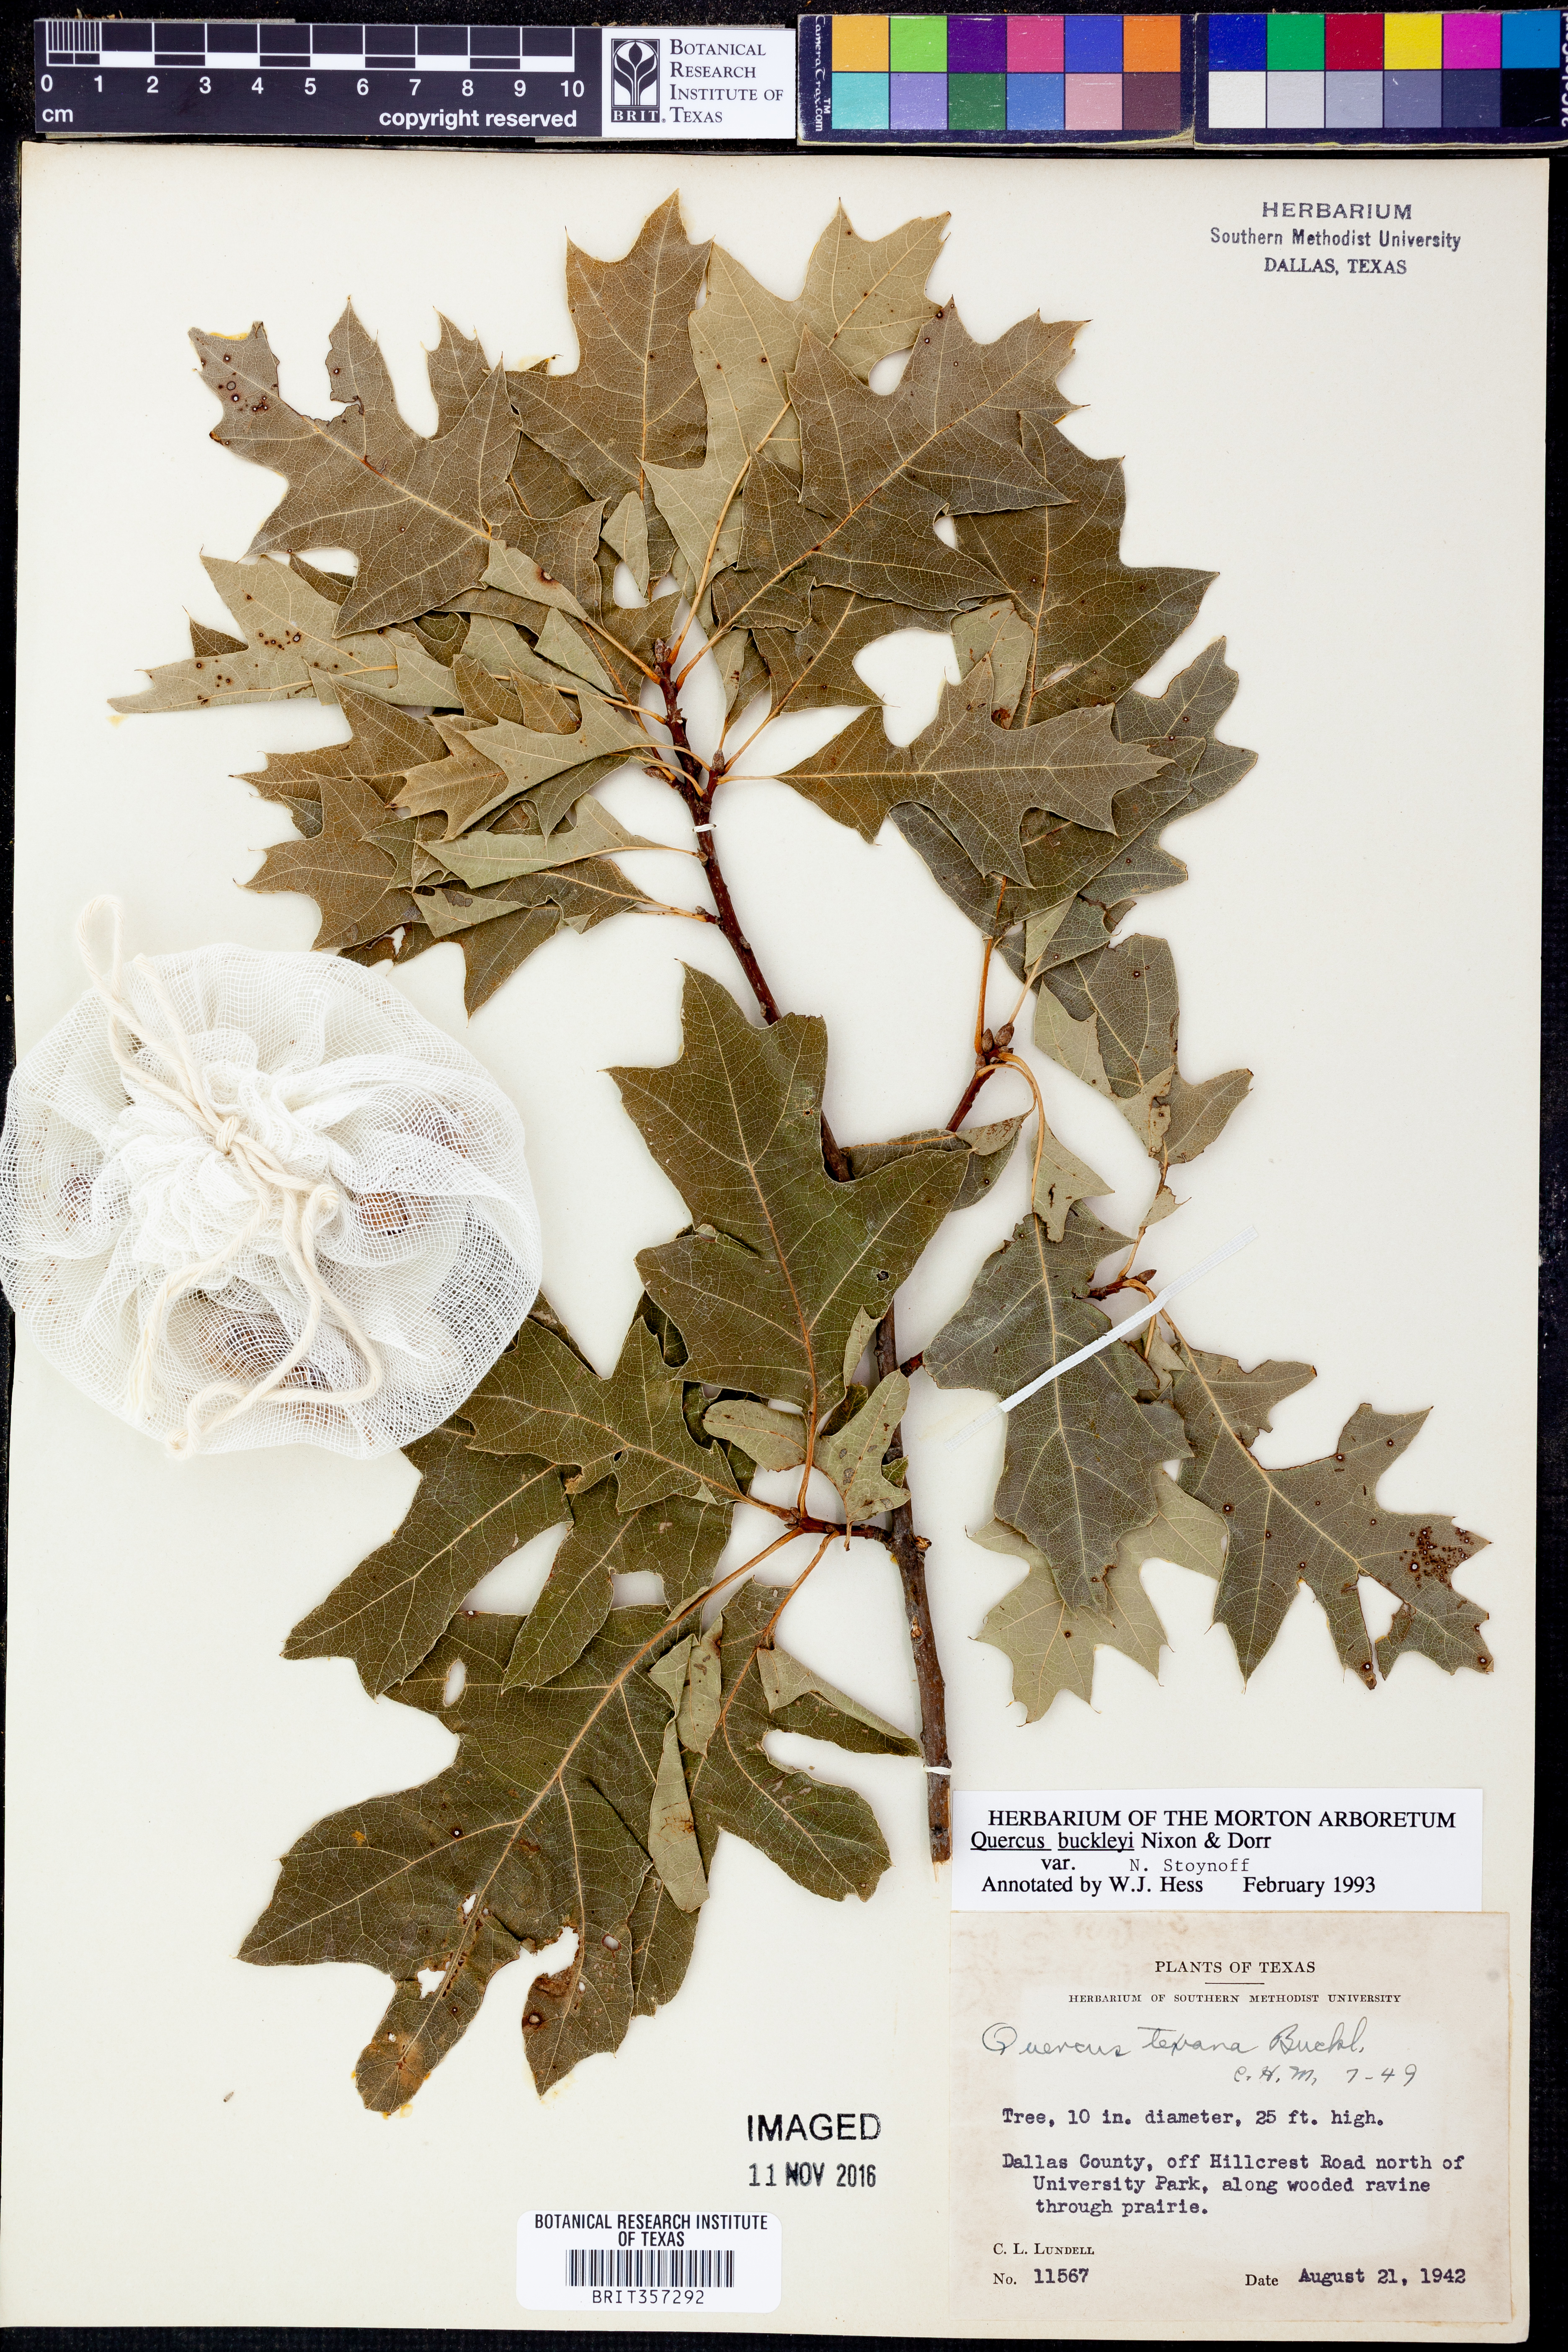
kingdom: Plantae
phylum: Tracheophyta
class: Magnoliopsida
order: Fagales
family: Fagaceae
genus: Quercus
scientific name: Quercus buckleyi
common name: Buckley oak
